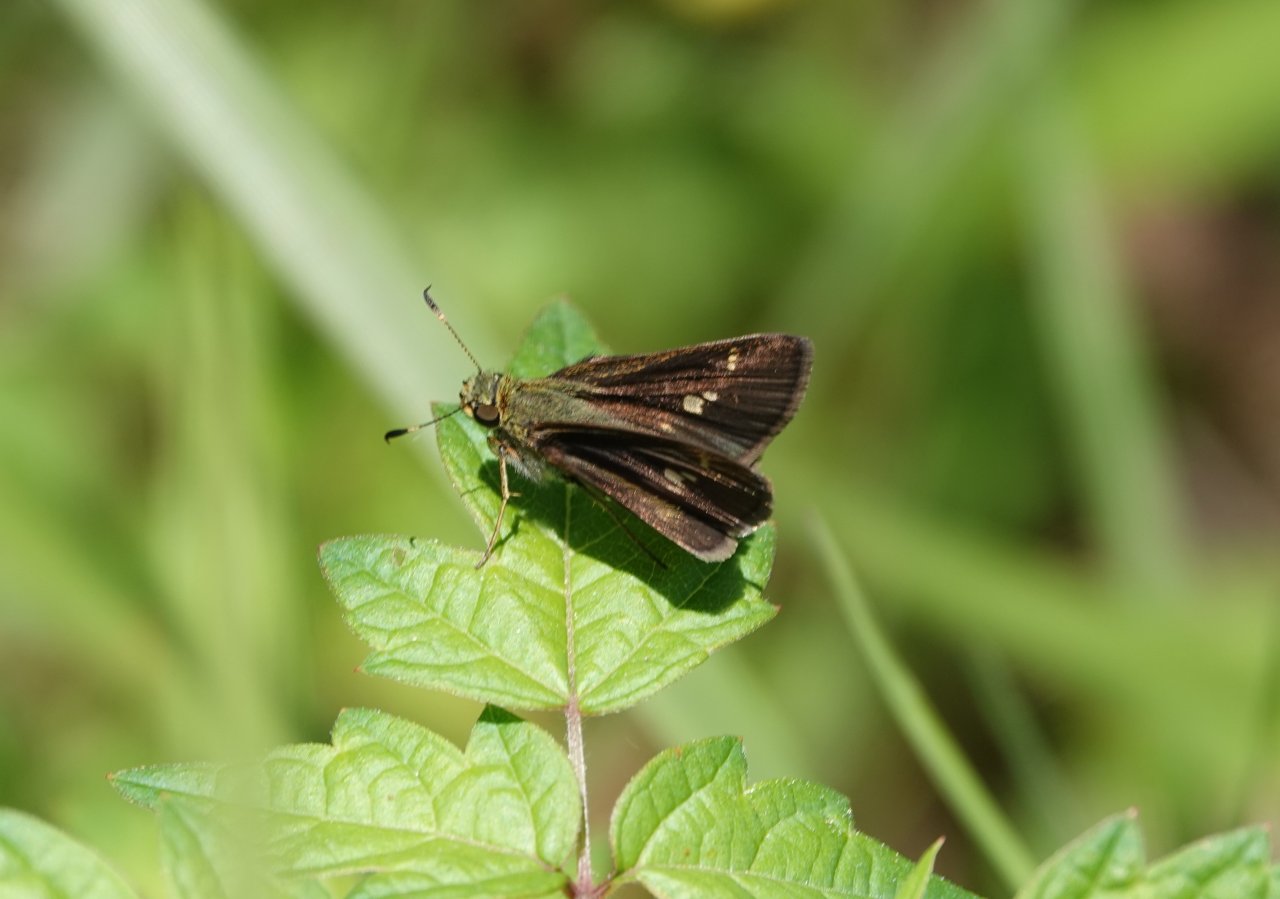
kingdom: Animalia
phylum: Arthropoda
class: Insecta
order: Lepidoptera
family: Hesperiidae
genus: Vernia
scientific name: Vernia verna
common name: Little Glassywing
